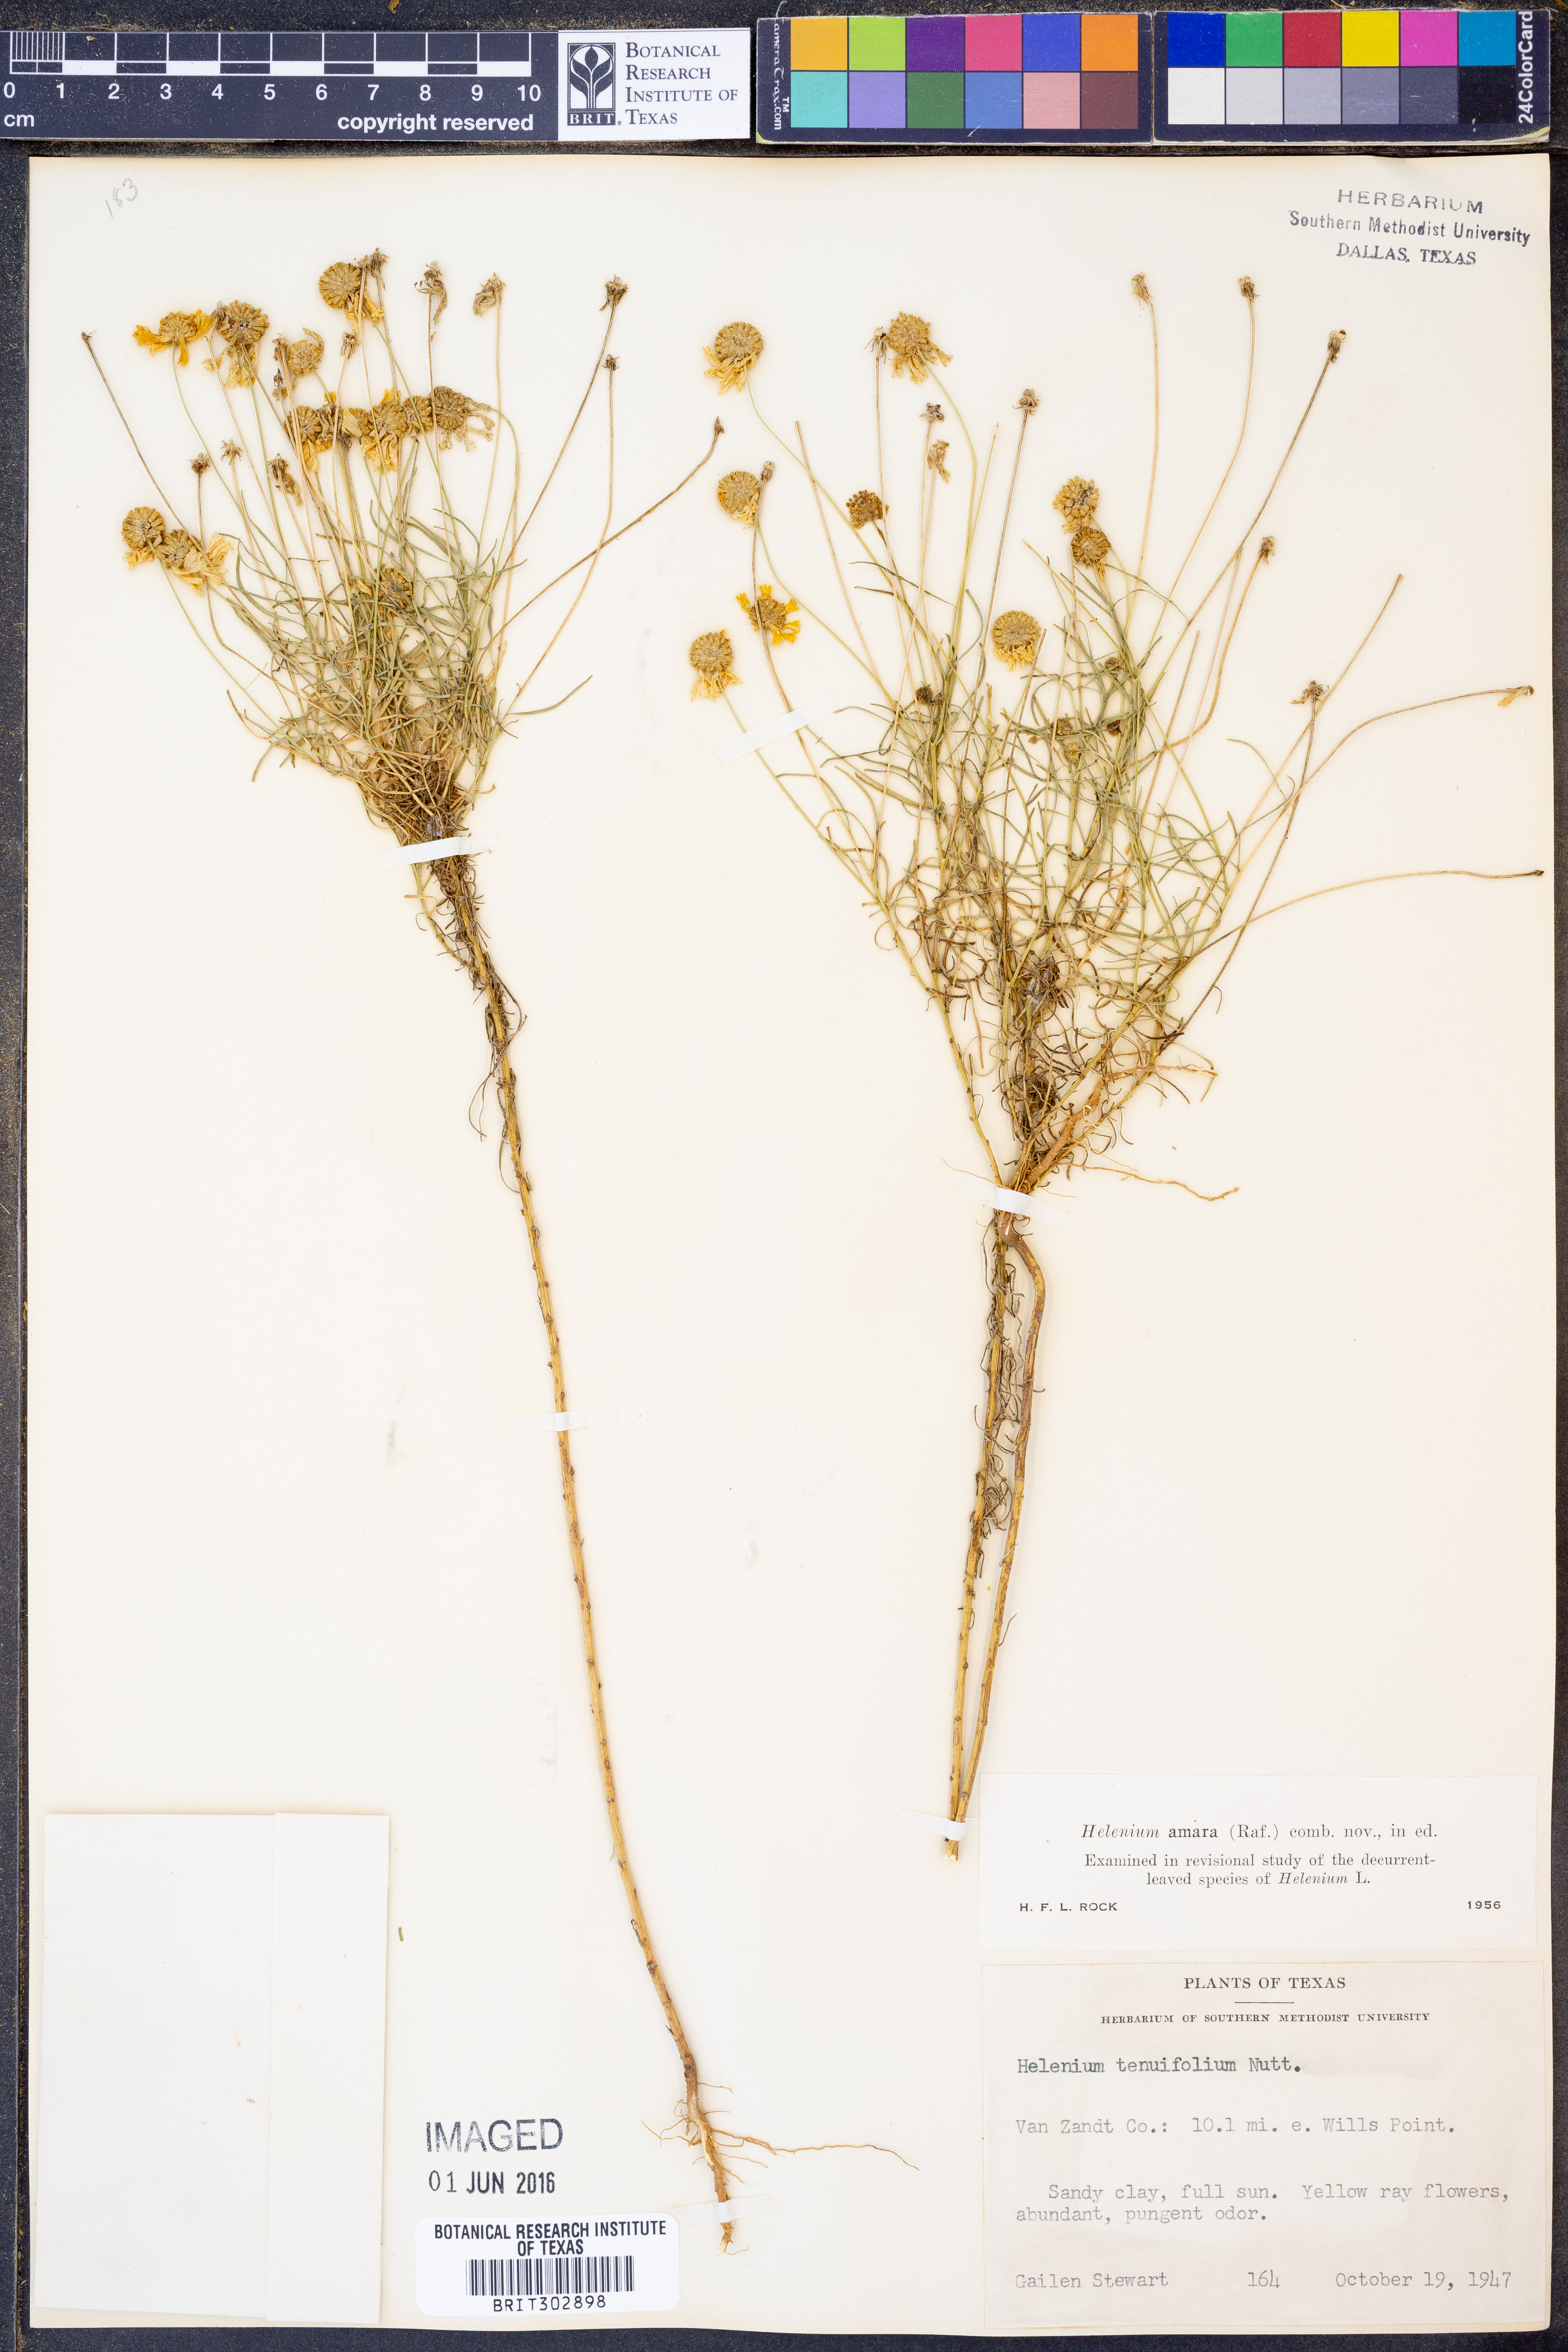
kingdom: Plantae
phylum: Tracheophyta
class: Magnoliopsida
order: Asterales
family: Asteraceae
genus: Helenium
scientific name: Helenium amarum
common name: Bitter sneezeweed
